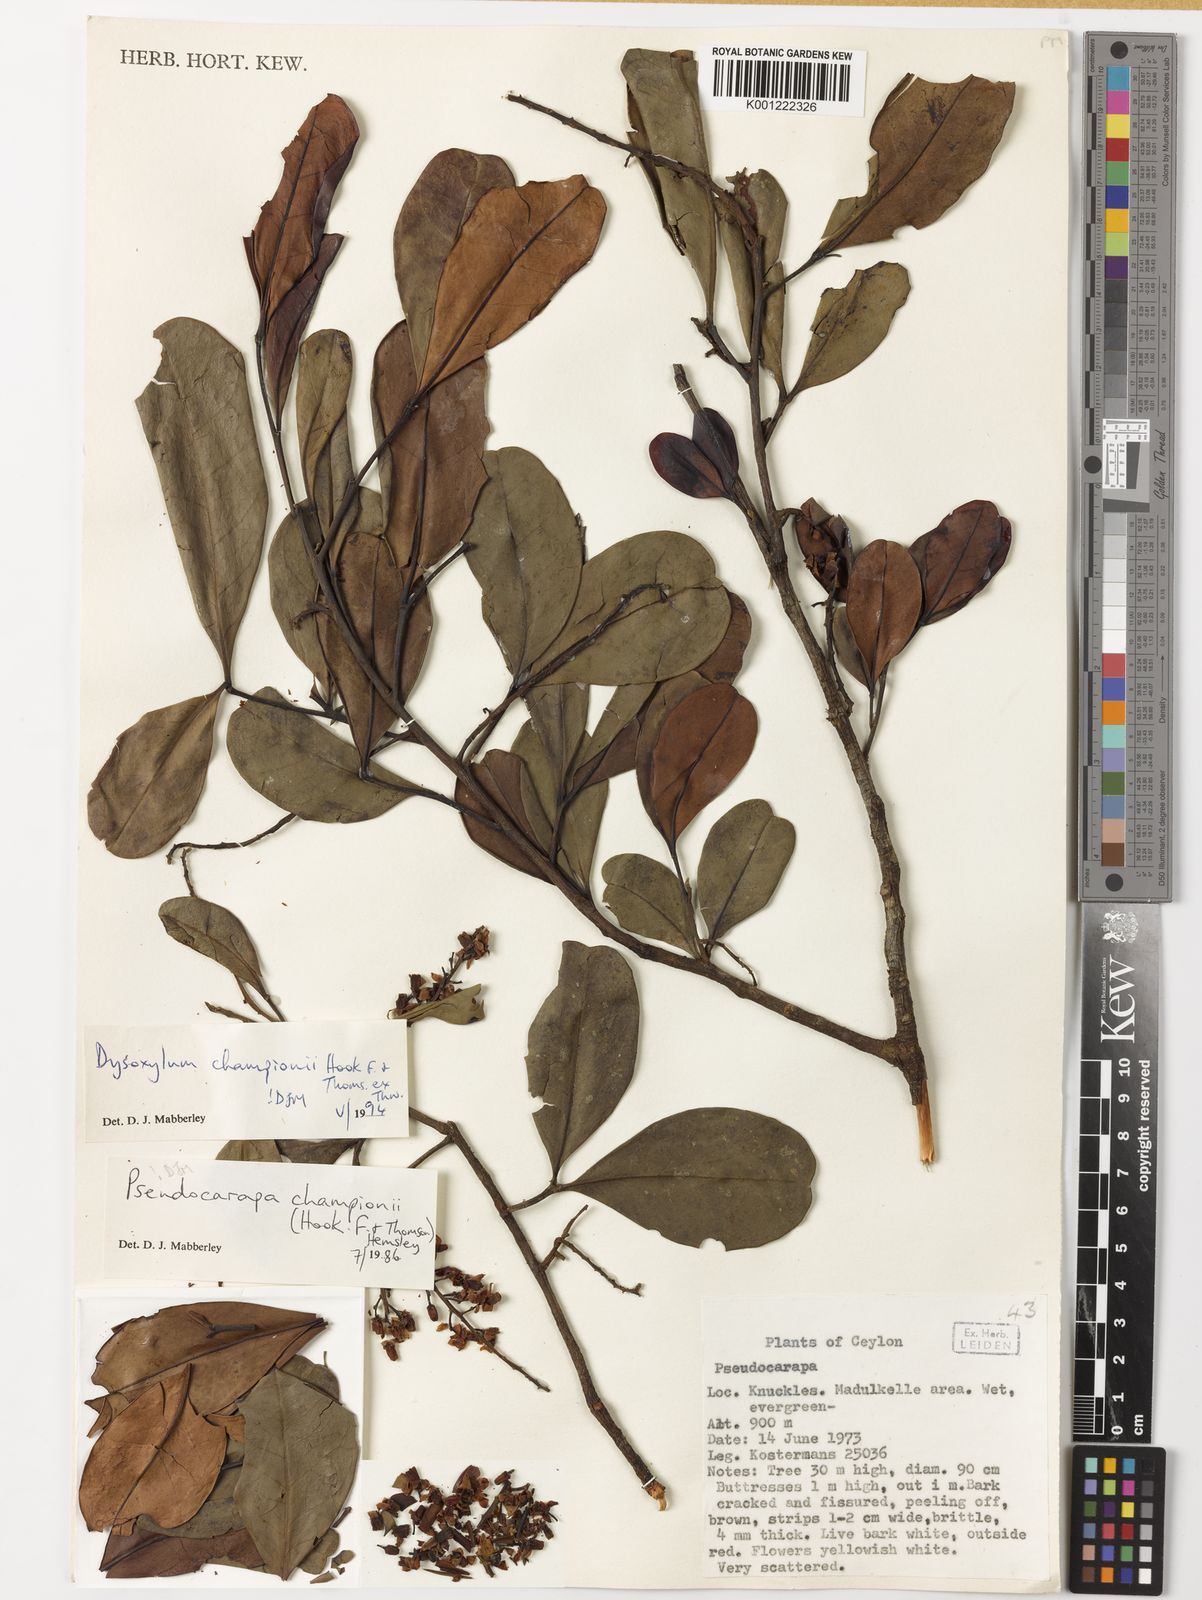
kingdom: Plantae
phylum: Tracheophyta
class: Magnoliopsida
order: Sapindales
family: Meliaceae
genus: Pseudocarapa
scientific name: Pseudocarapa championii
